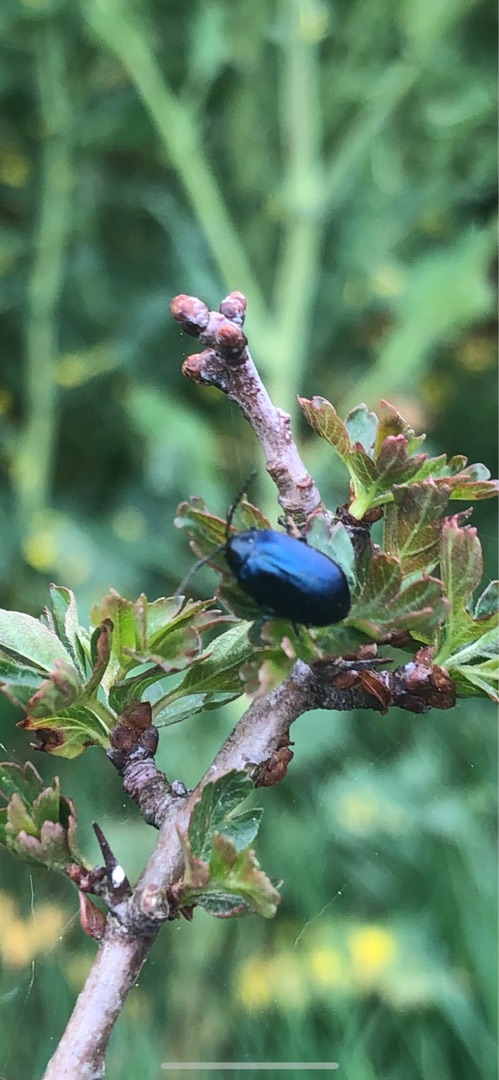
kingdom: Animalia
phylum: Arthropoda
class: Insecta
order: Coleoptera
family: Chrysomelidae
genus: Agelastica
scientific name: Agelastica alni
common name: Ellebladbille
